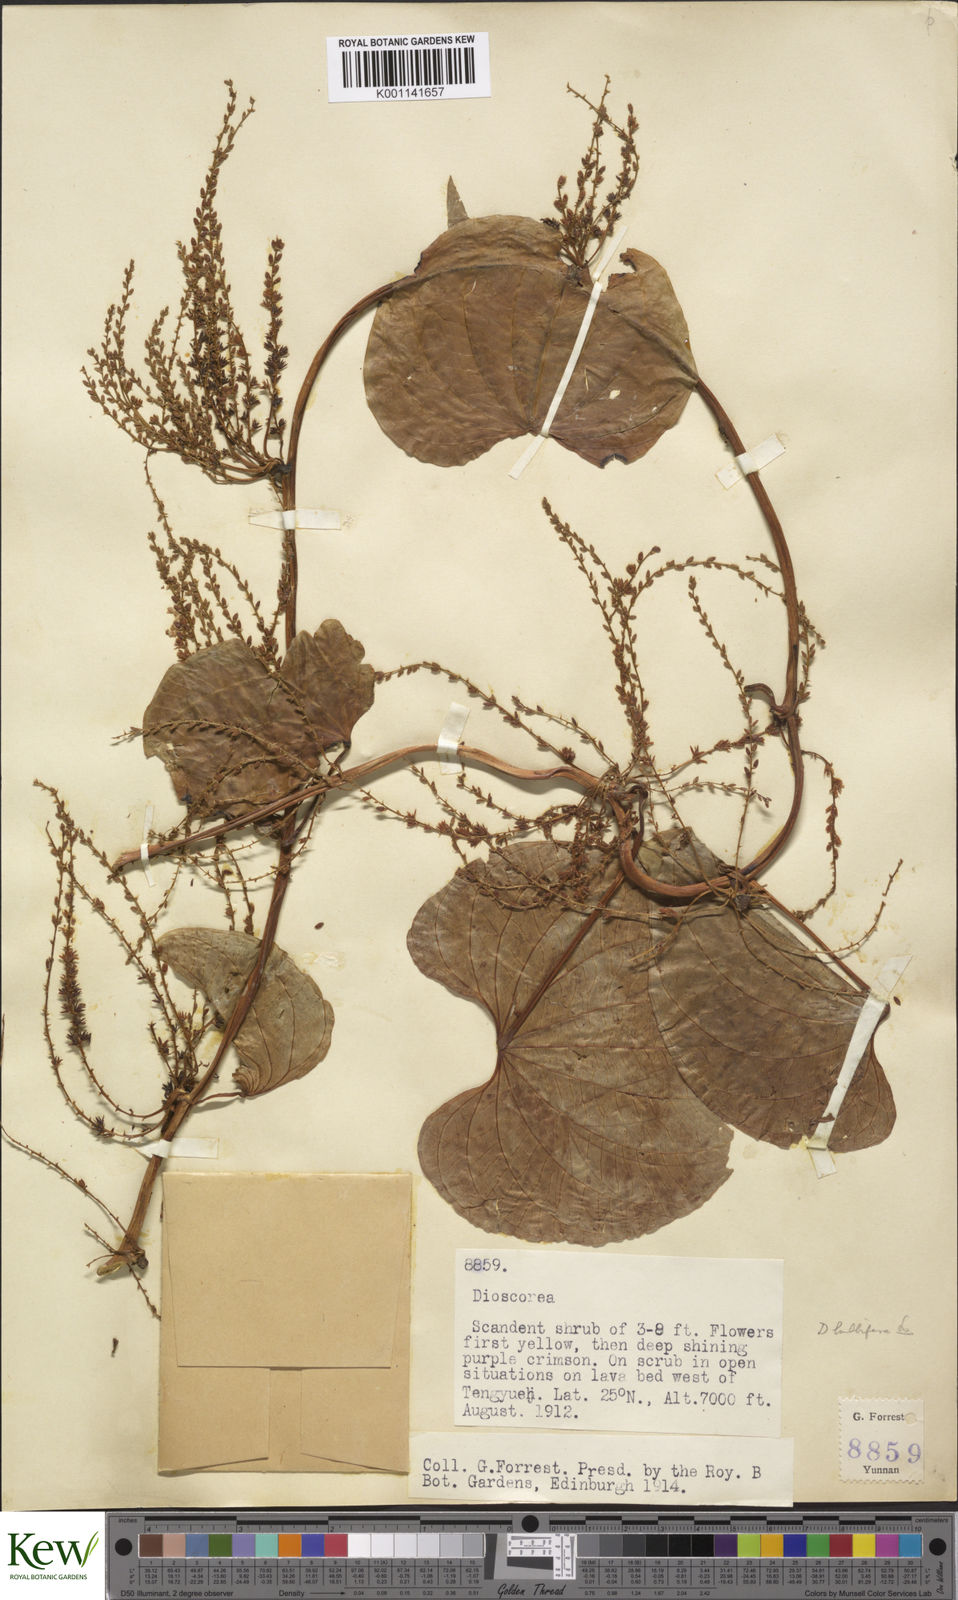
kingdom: Plantae
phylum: Tracheophyta
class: Liliopsida
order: Dioscoreales
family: Dioscoreaceae
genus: Dioscorea
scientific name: Dioscorea bulbifera
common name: Air yam
